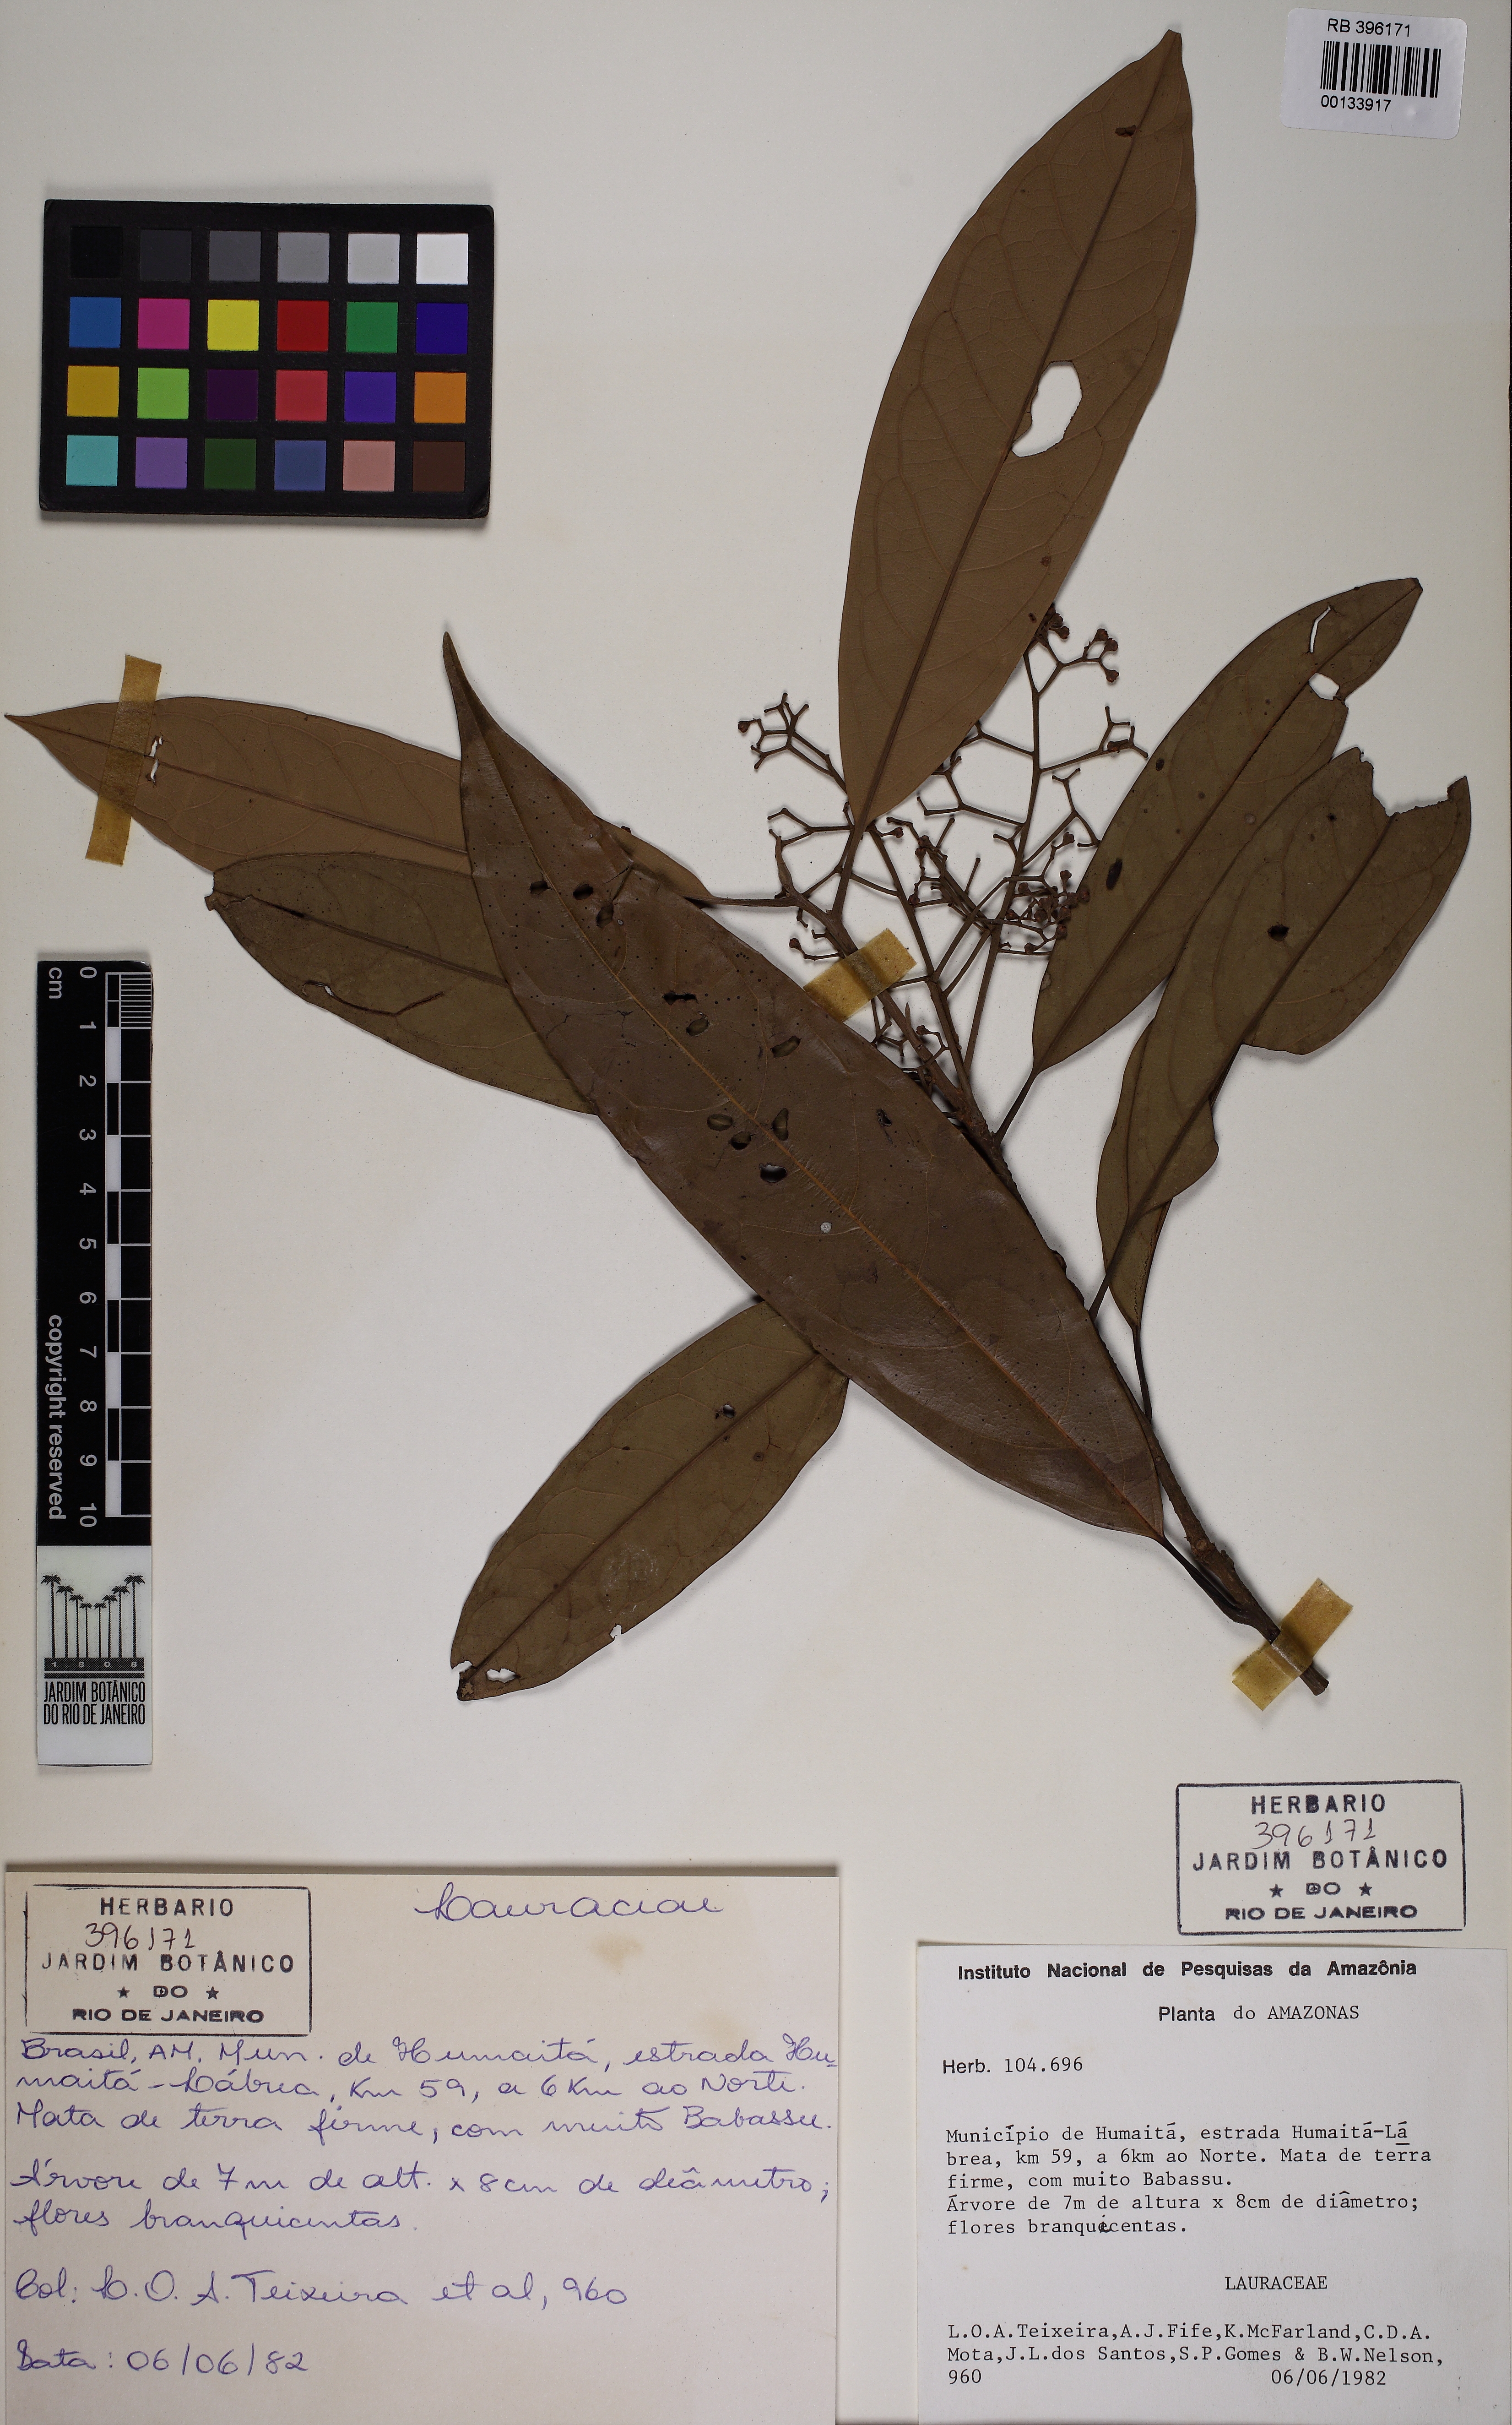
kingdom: Plantae
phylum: Tracheophyta
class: Magnoliopsida
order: Laurales
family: Lauraceae
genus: Aniba
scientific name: Aniba canelilla
